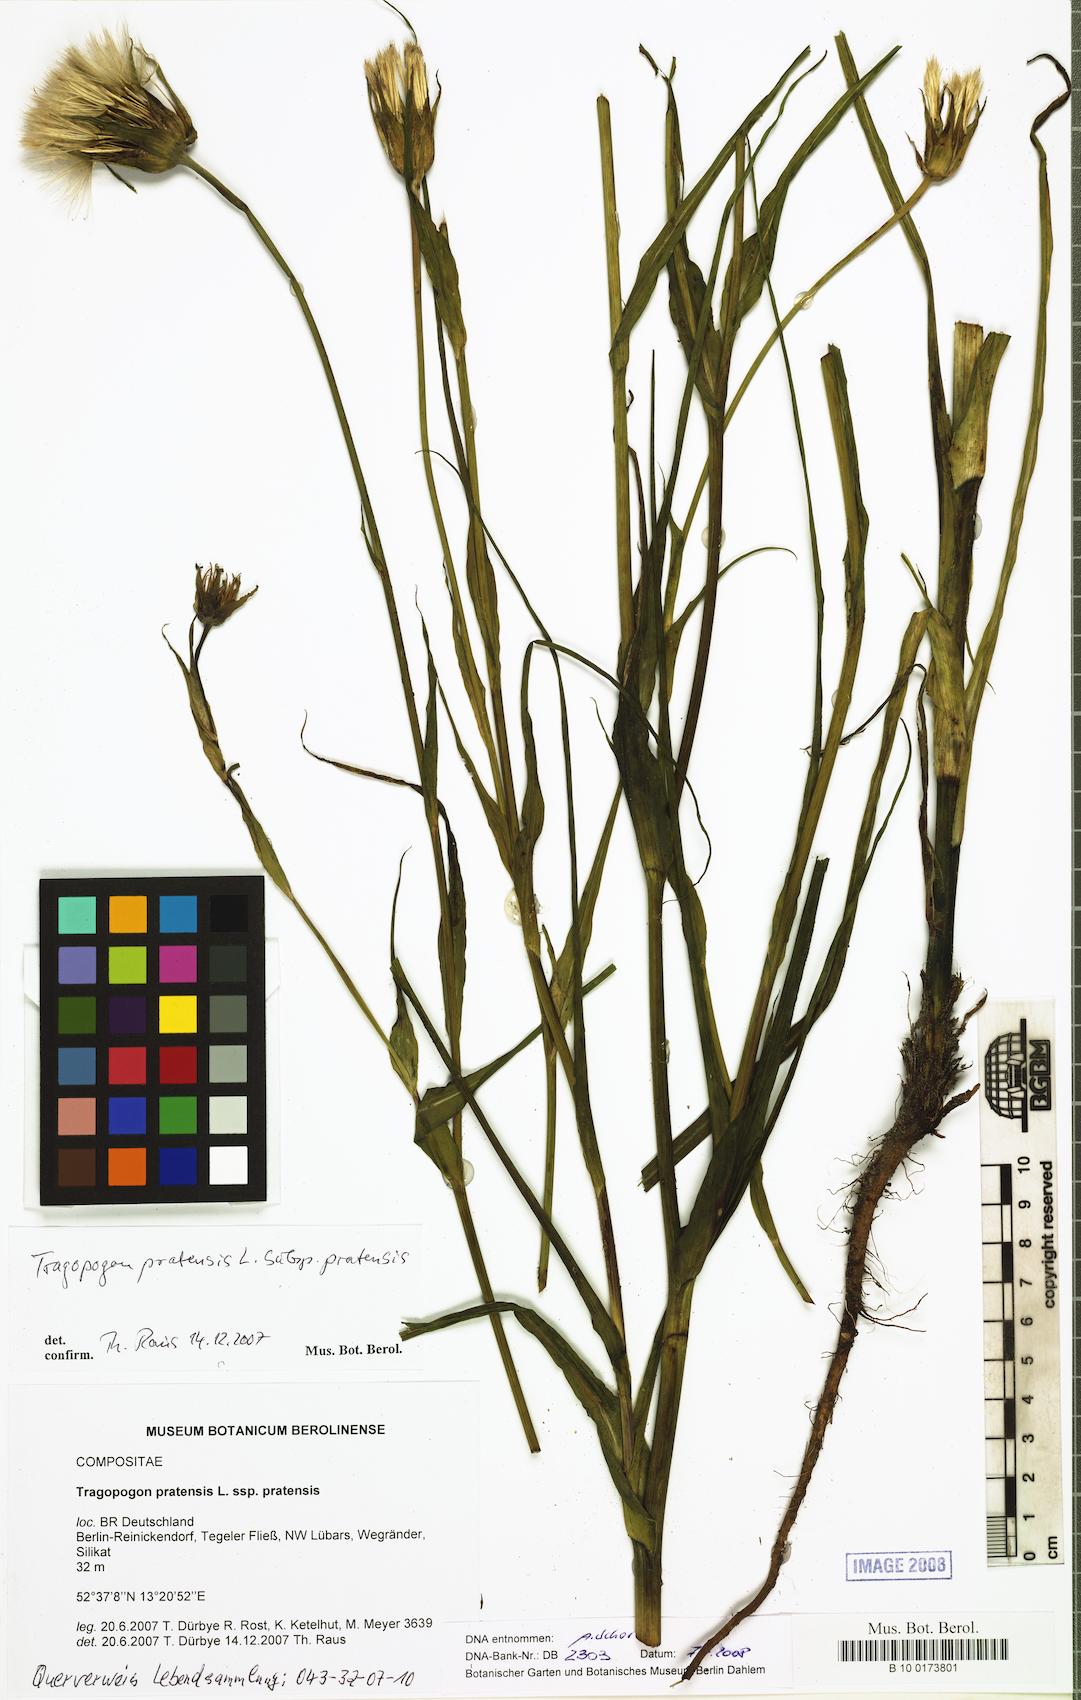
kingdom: Plantae
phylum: Tracheophyta
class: Magnoliopsida
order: Asterales
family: Asteraceae
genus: Tragopogon
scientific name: Tragopogon pratensis
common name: Goat's-beard
